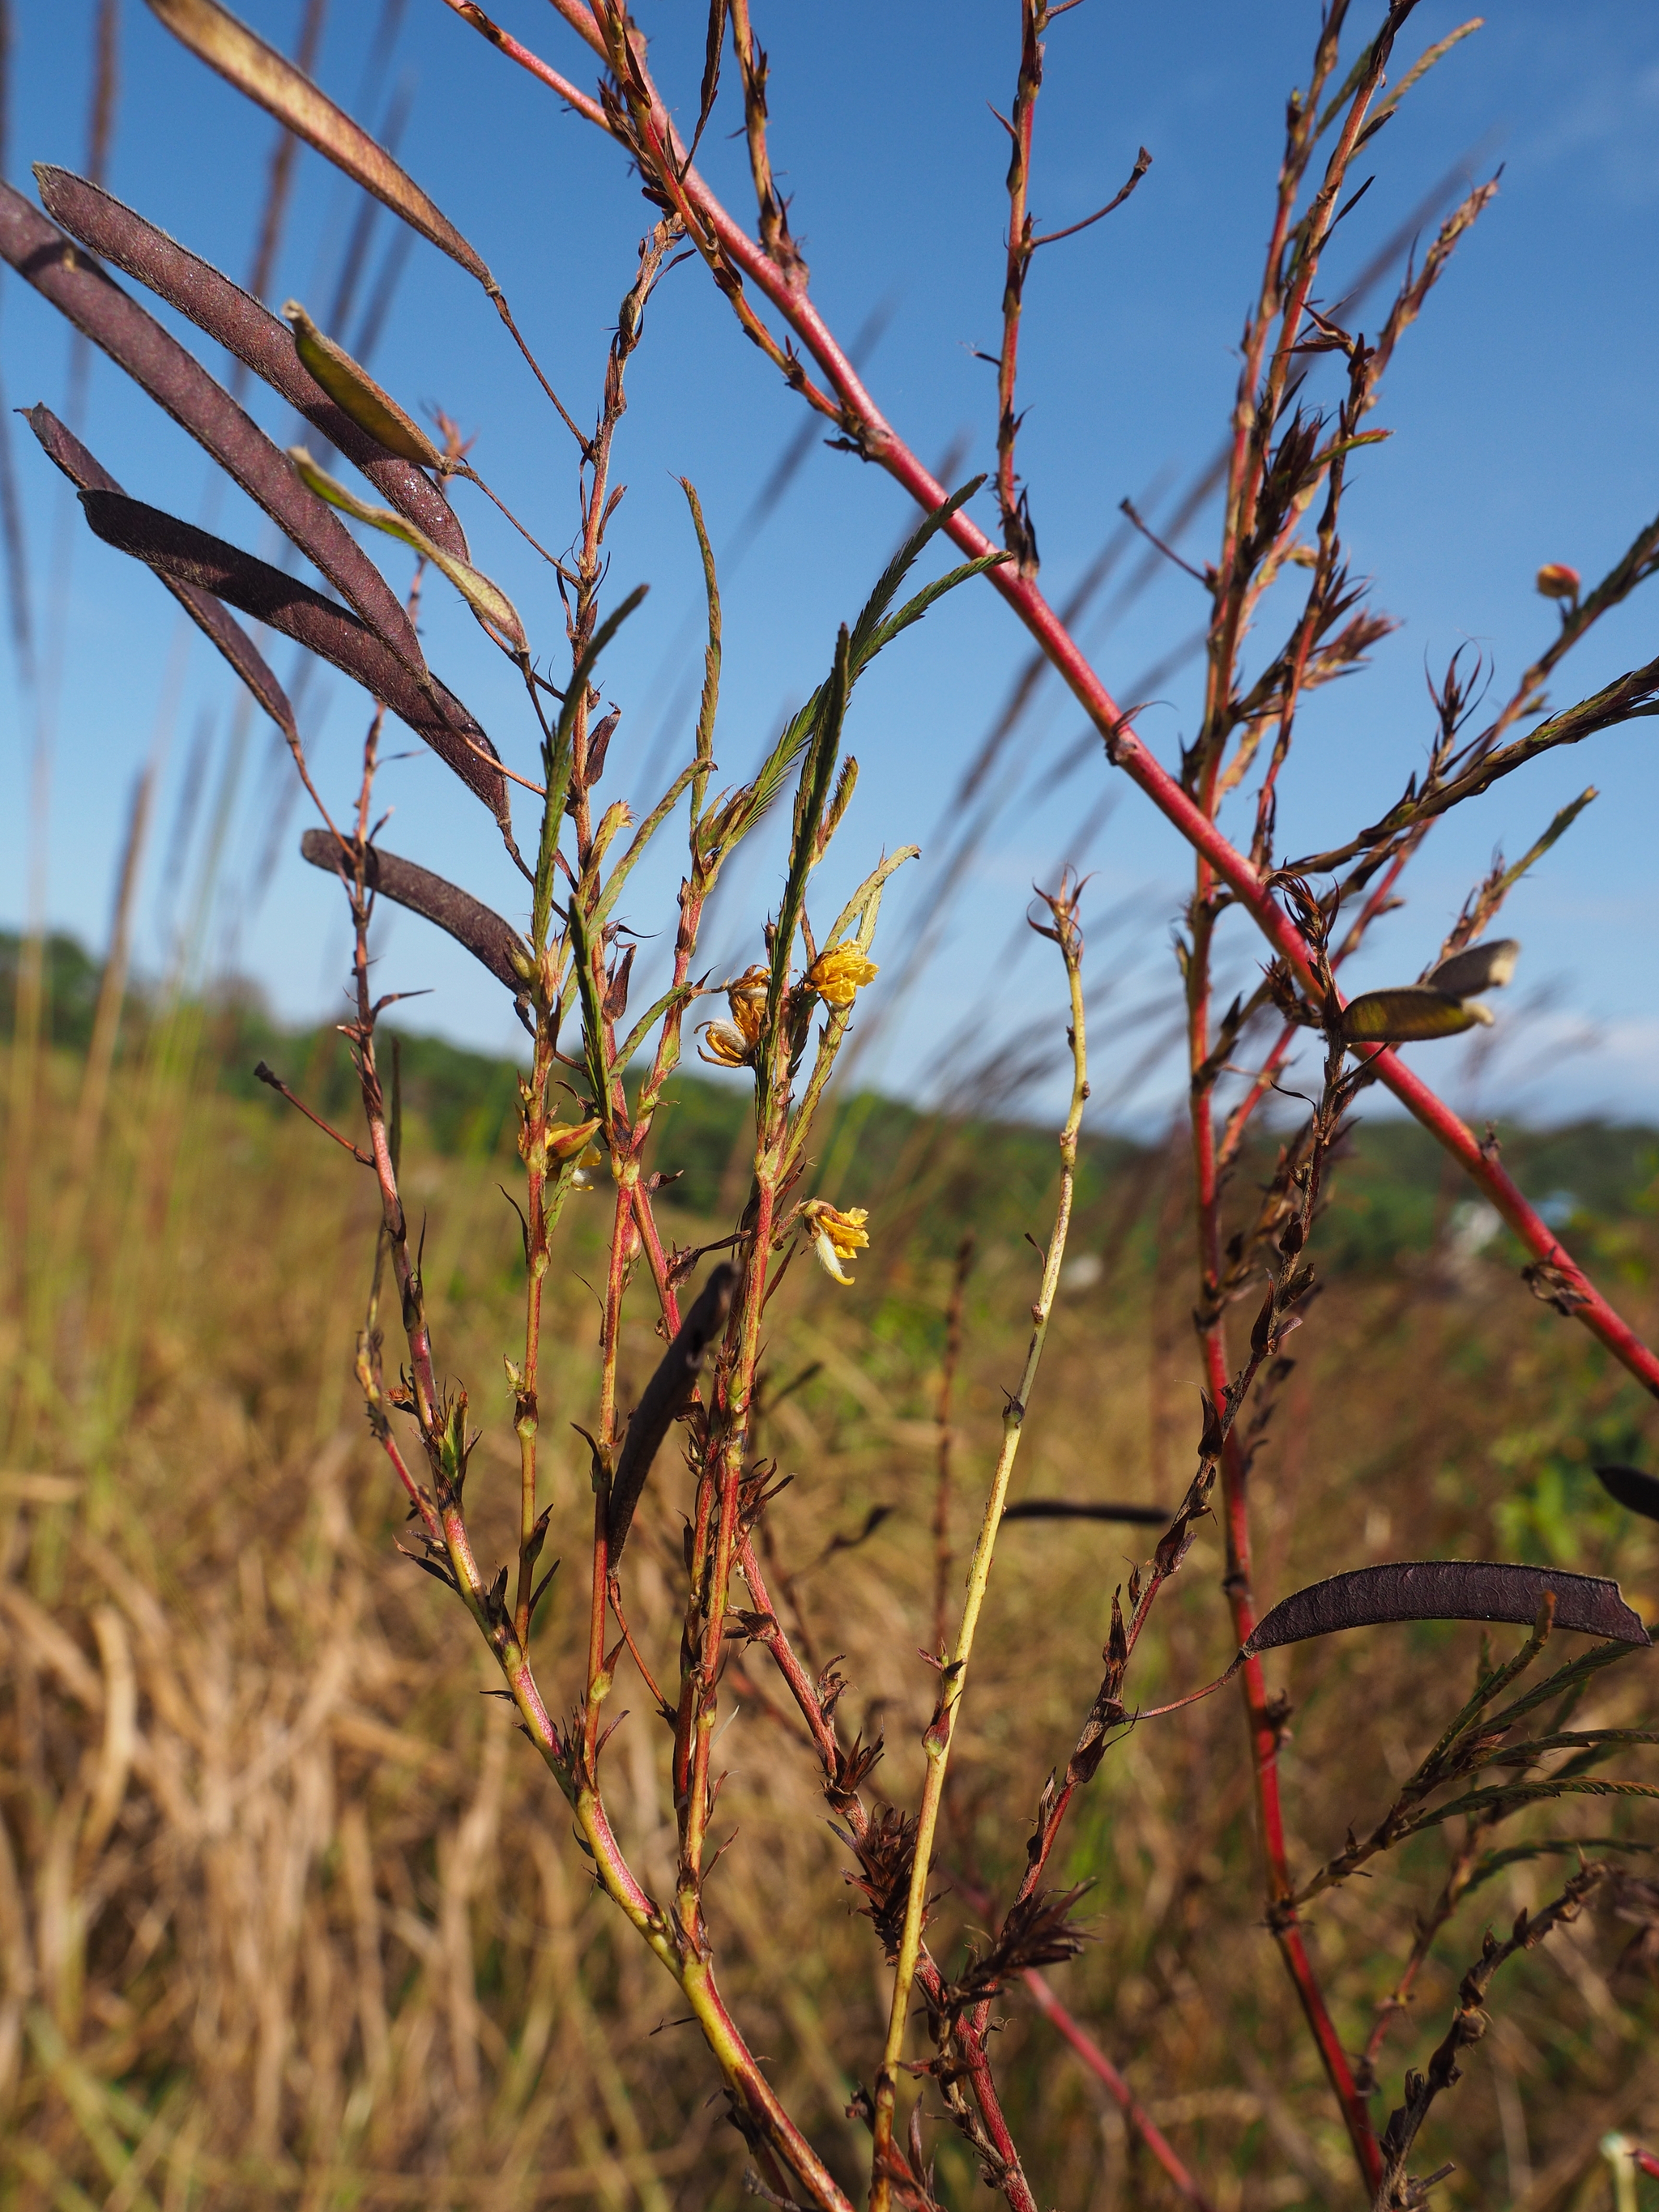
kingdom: Plantae
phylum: Tracheophyta
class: Magnoliopsida
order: Fabales
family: Fabaceae
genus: Chamaecrista
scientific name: Chamaecrista nictitans
